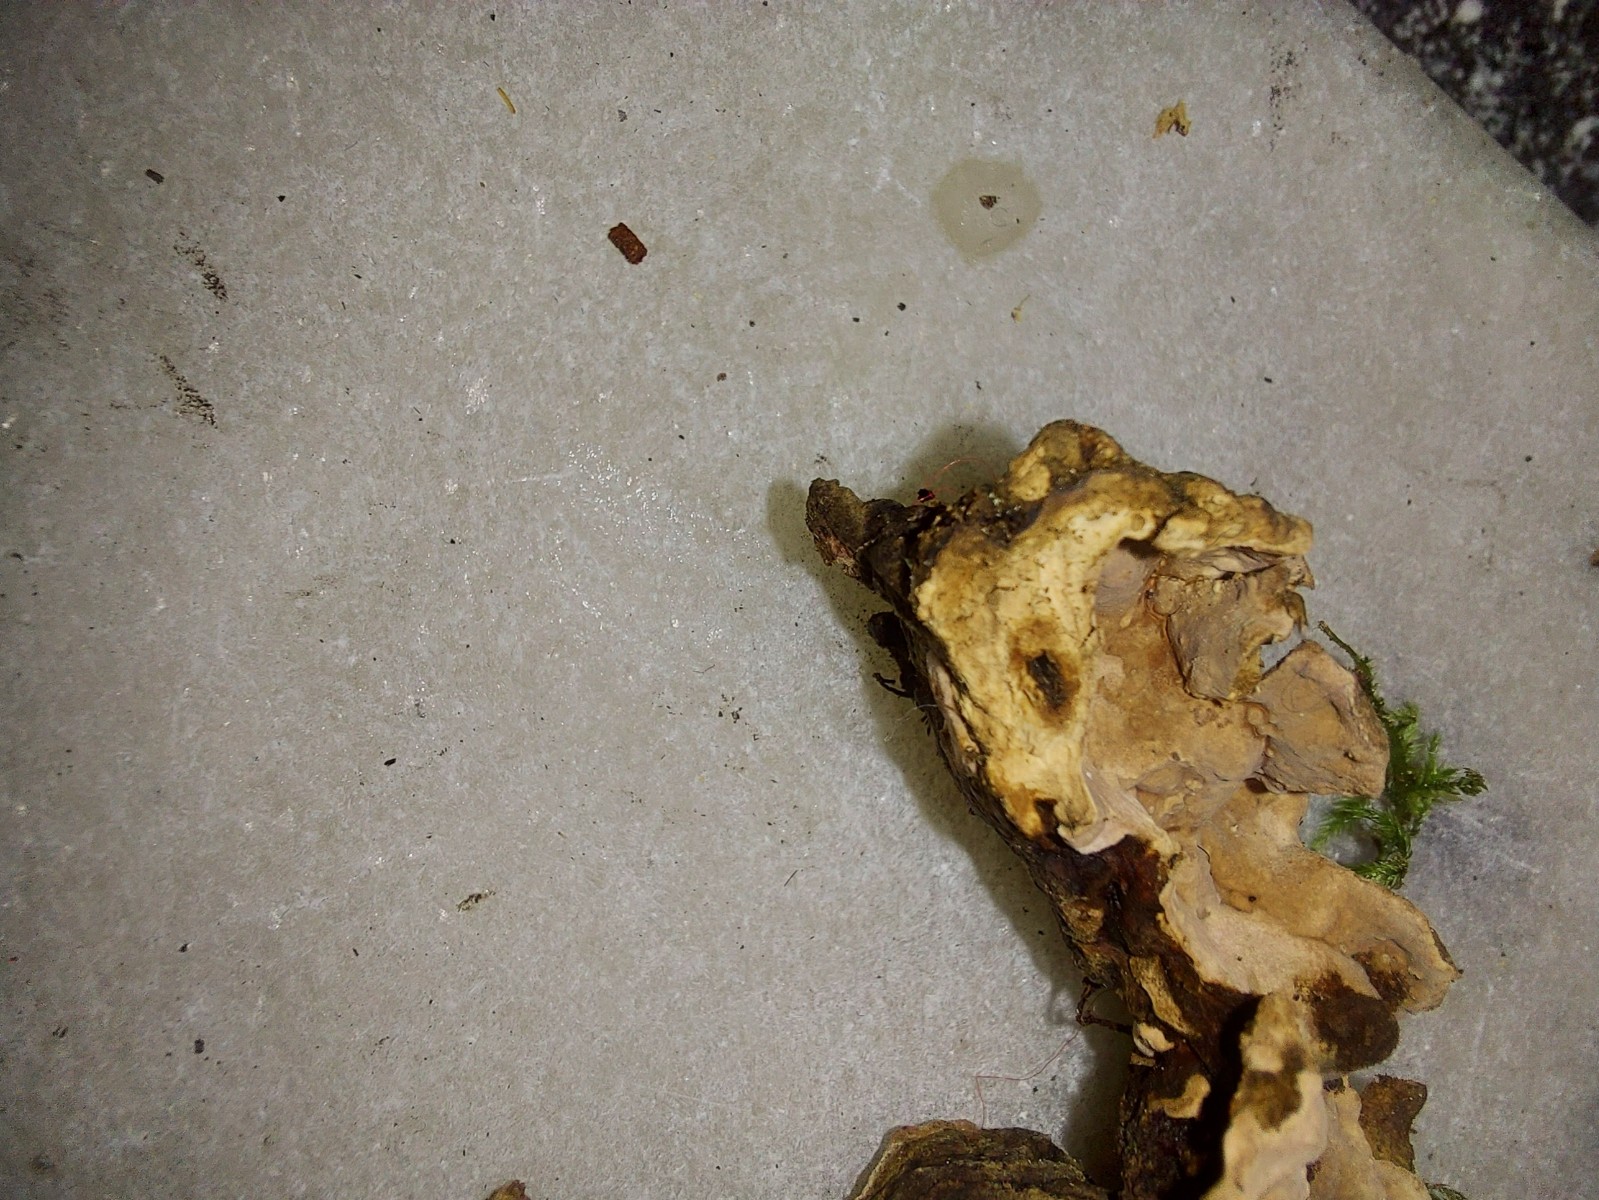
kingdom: Fungi
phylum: Basidiomycota
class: Agaricomycetes
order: Russulales
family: Echinodontiaceae
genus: Amylostereum
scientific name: Amylostereum areolatum
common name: brunviolet lædersvamp
